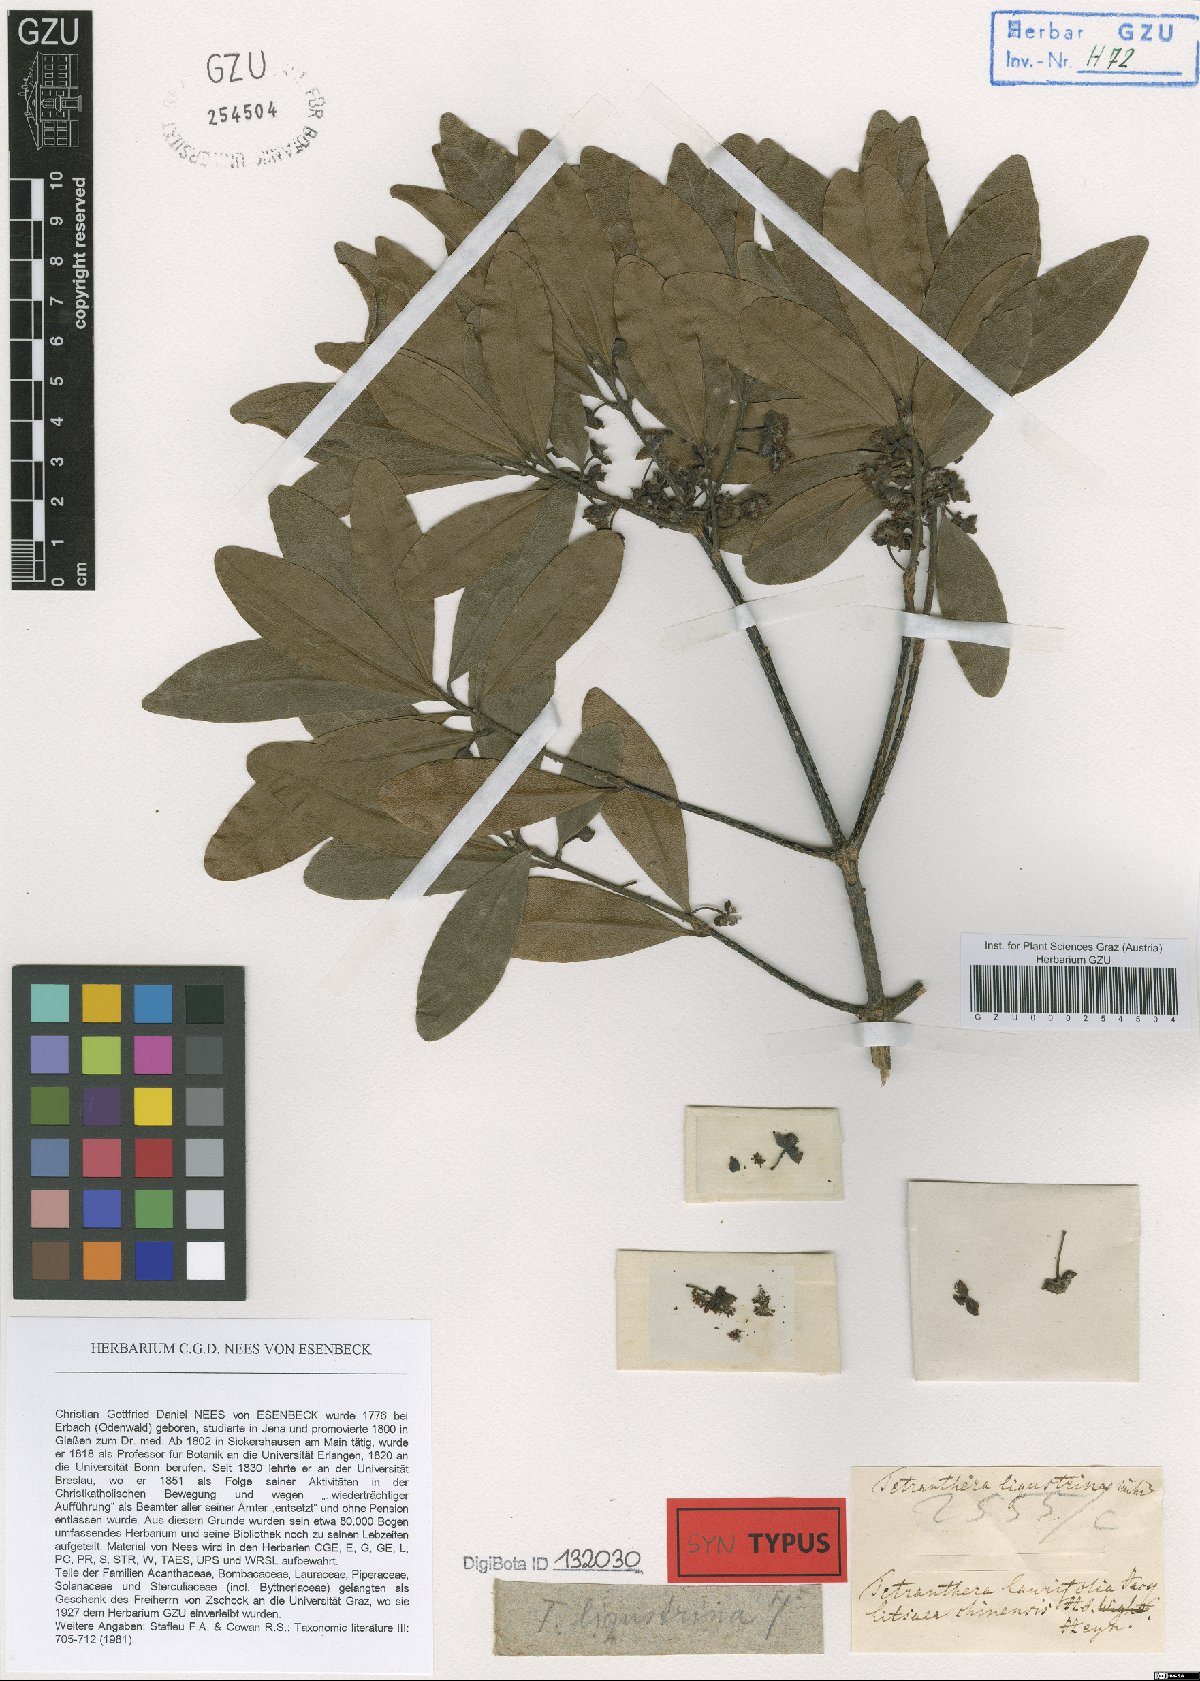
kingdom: Plantae
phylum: Tracheophyta
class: Magnoliopsida
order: Laurales
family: Lauraceae
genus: Litsea
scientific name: Litsea ligustrina
